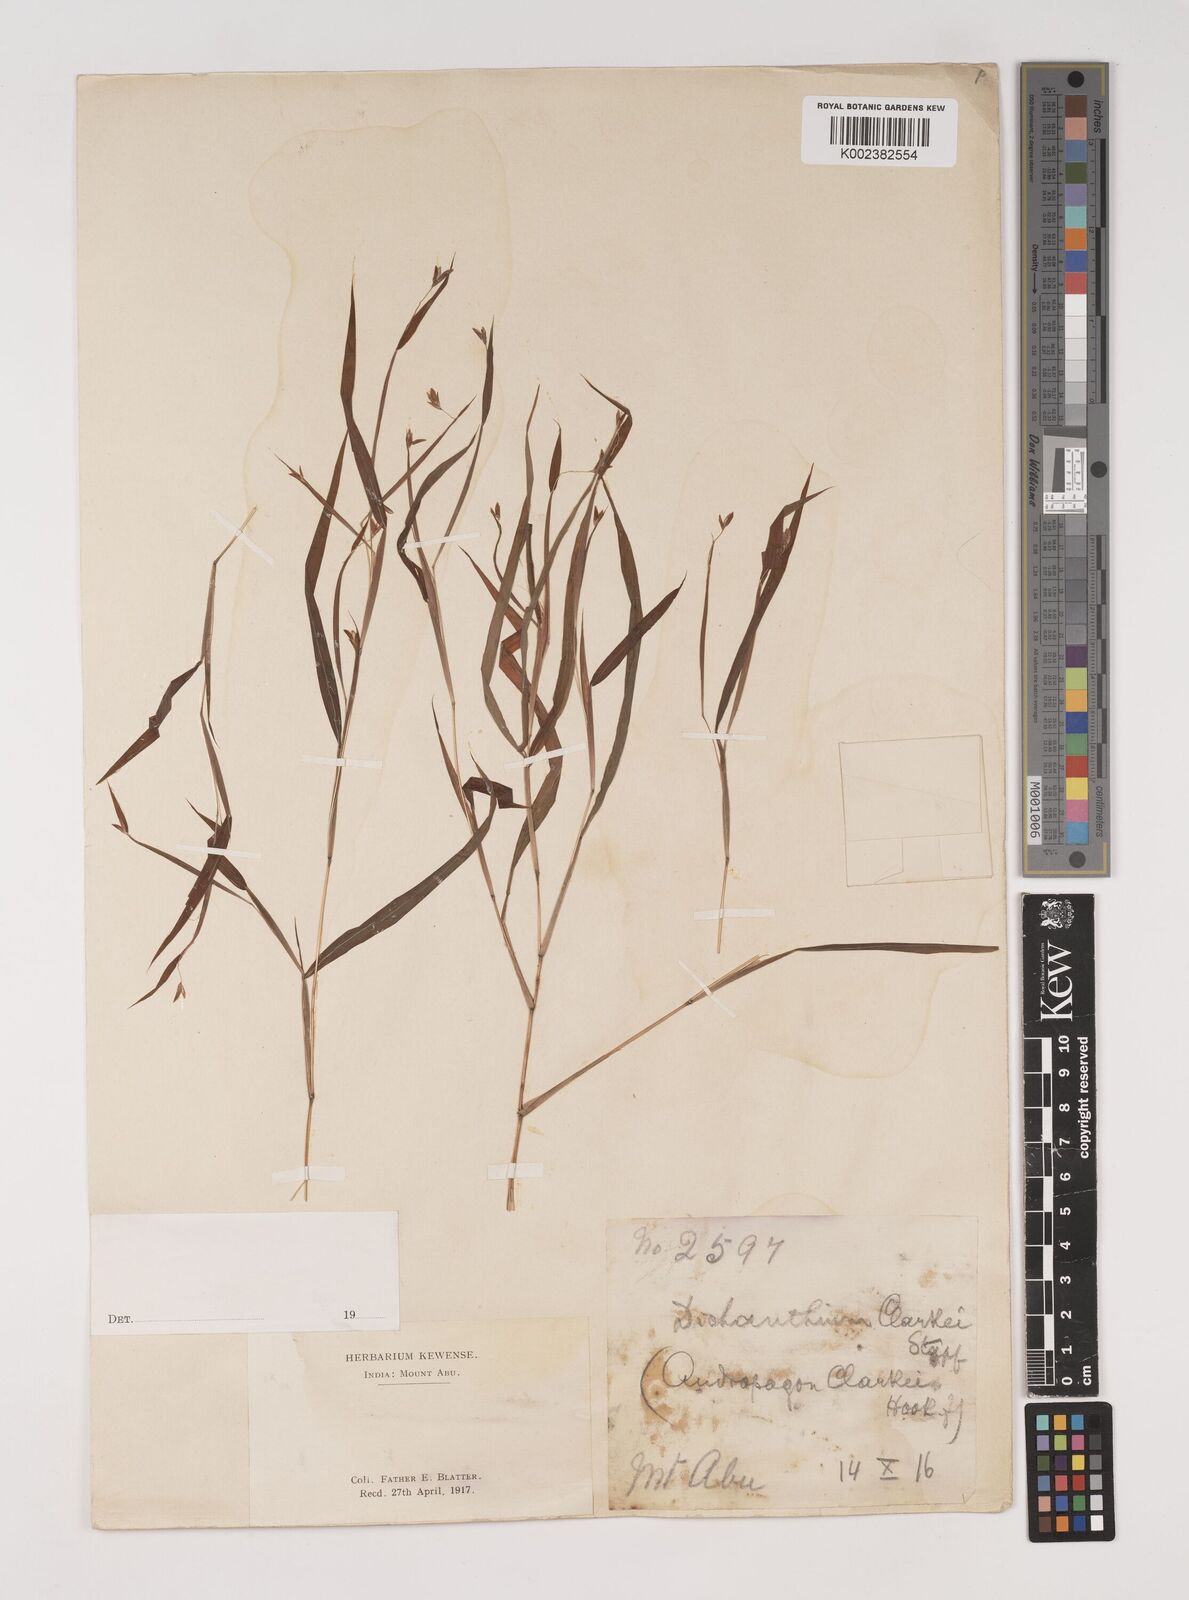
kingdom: Plantae
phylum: Tracheophyta
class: Liliopsida
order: Poales
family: Poaceae
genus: Euclasta
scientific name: Euclasta clarkei
